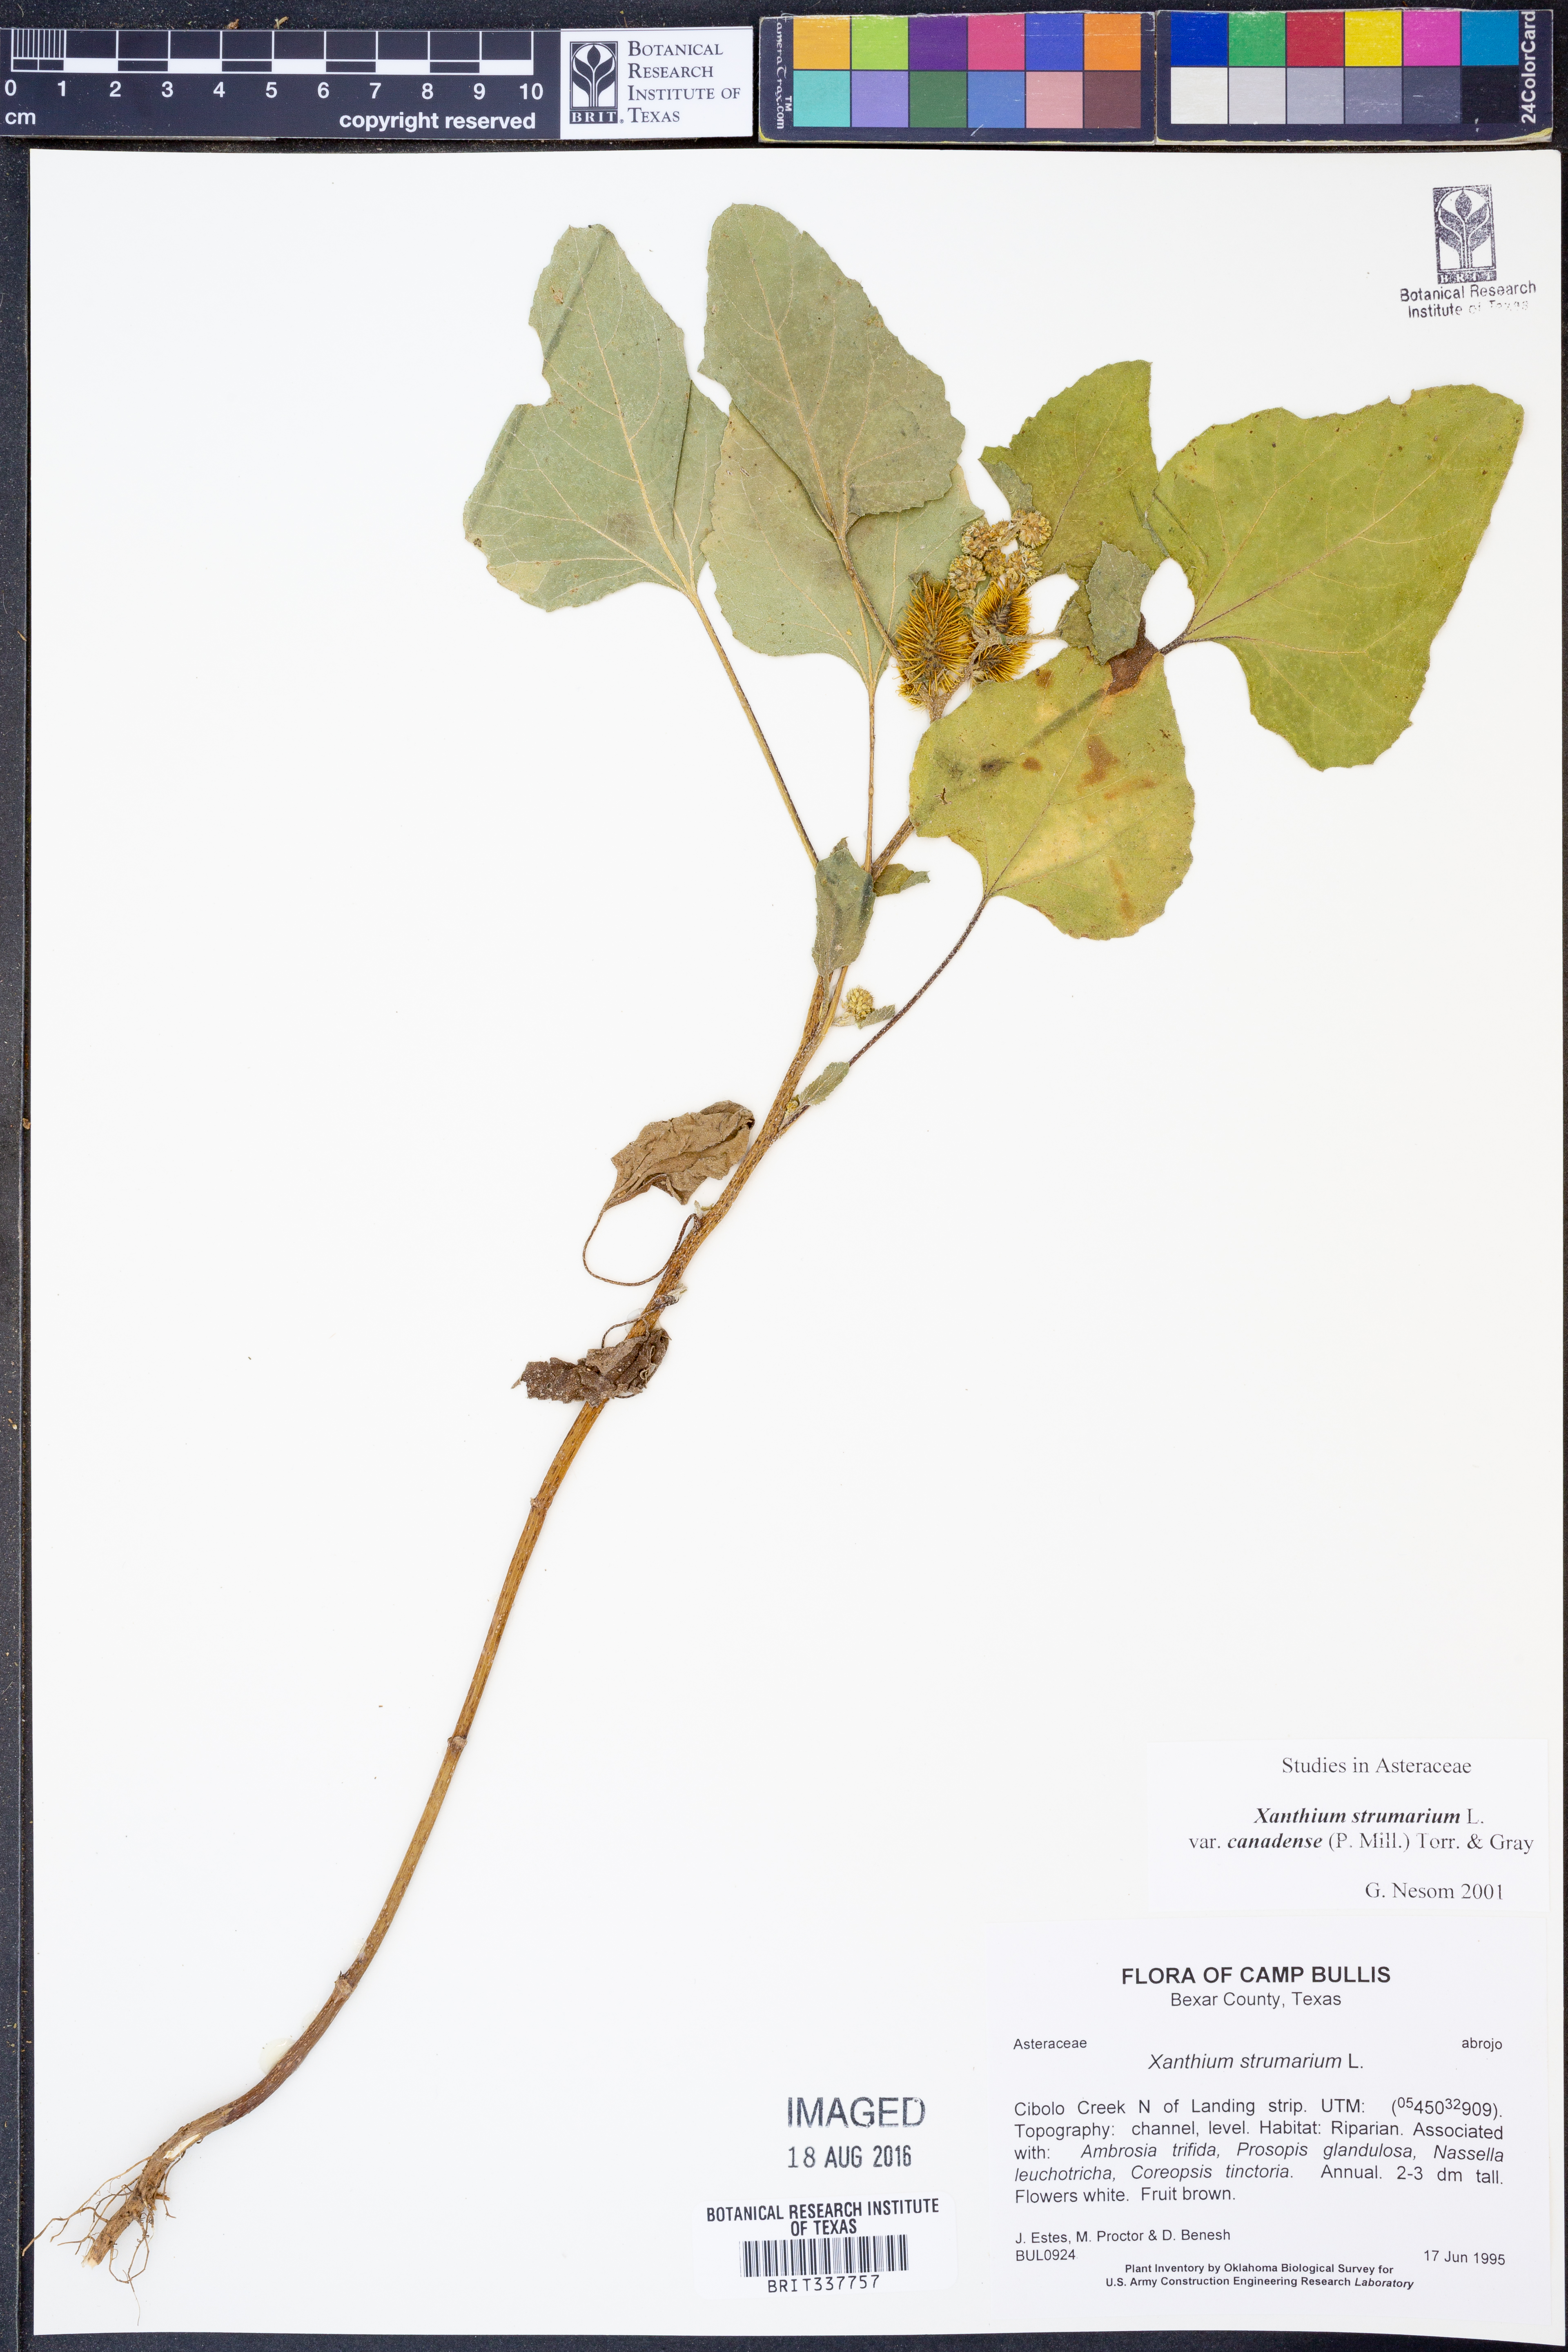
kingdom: Plantae
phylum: Tracheophyta
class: Magnoliopsida
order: Asterales
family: Asteraceae
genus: Xanthium
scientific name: Xanthium orientale
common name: Californian burr
